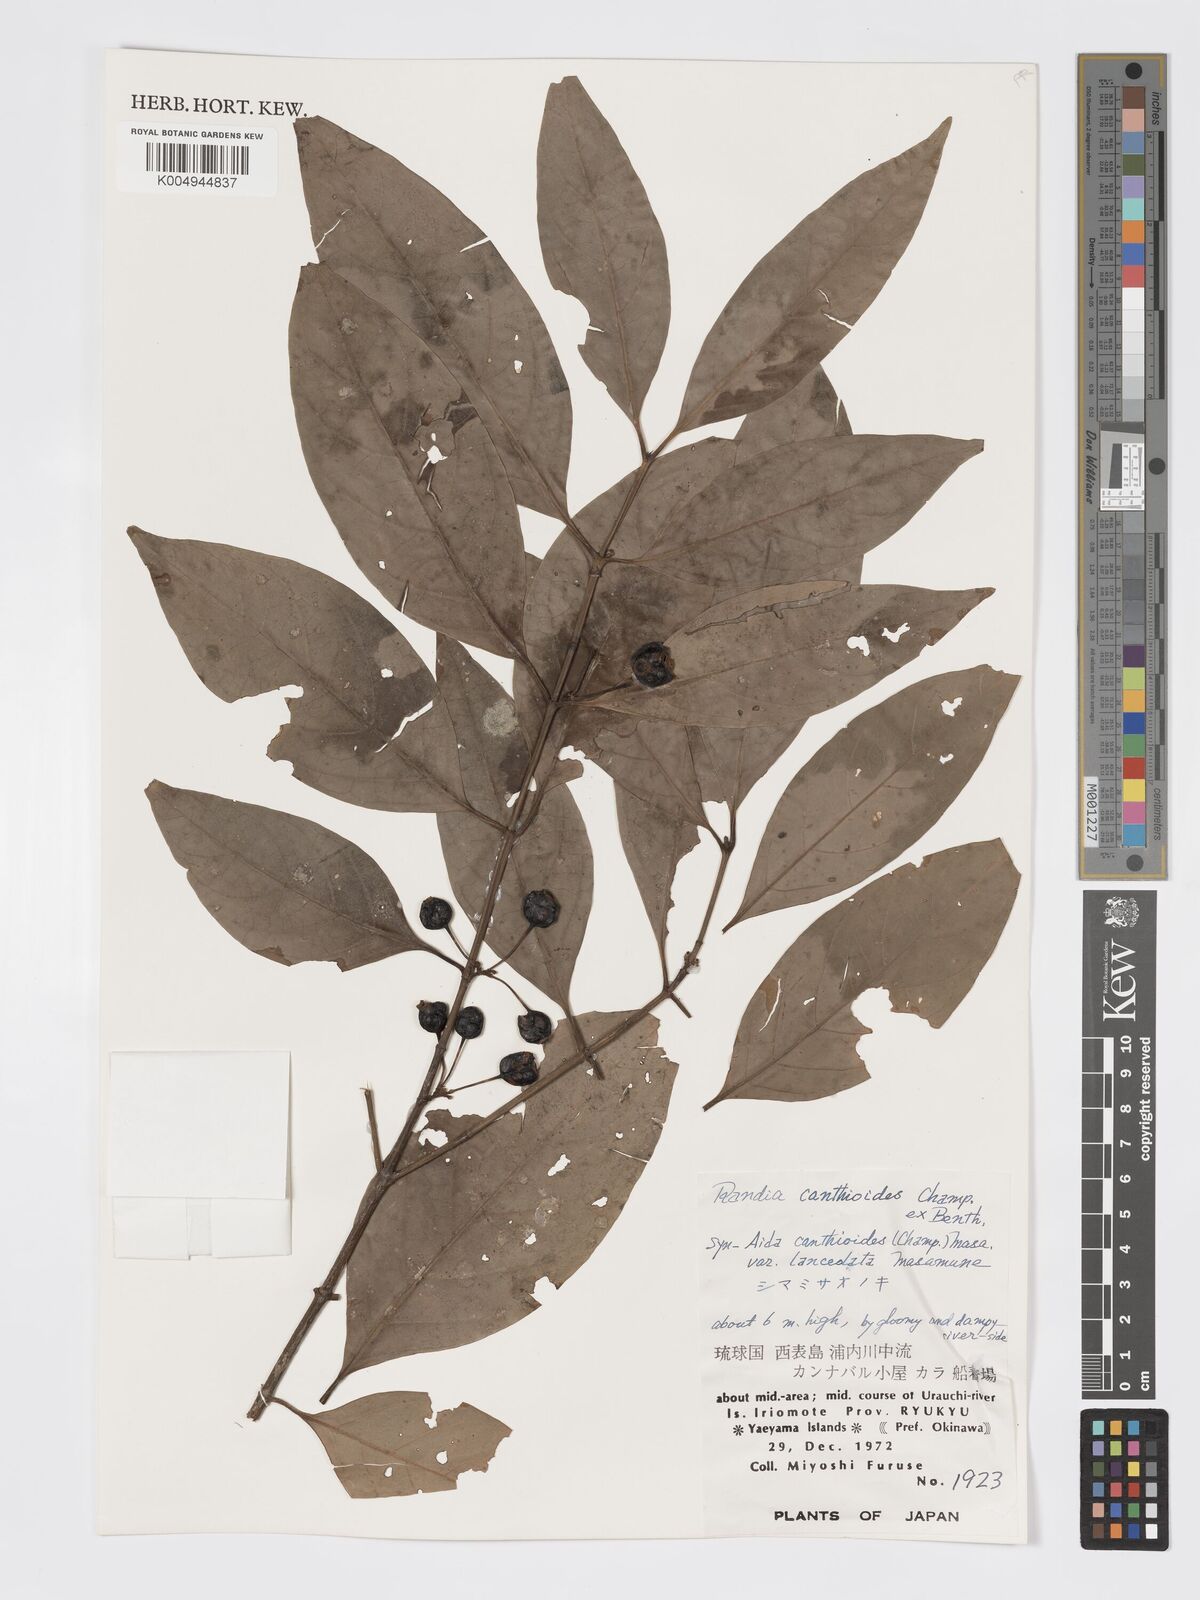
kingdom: Plantae
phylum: Tracheophyta
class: Magnoliopsida
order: Gentianales
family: Rubiaceae
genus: Aidia
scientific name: Aidia canthioides
